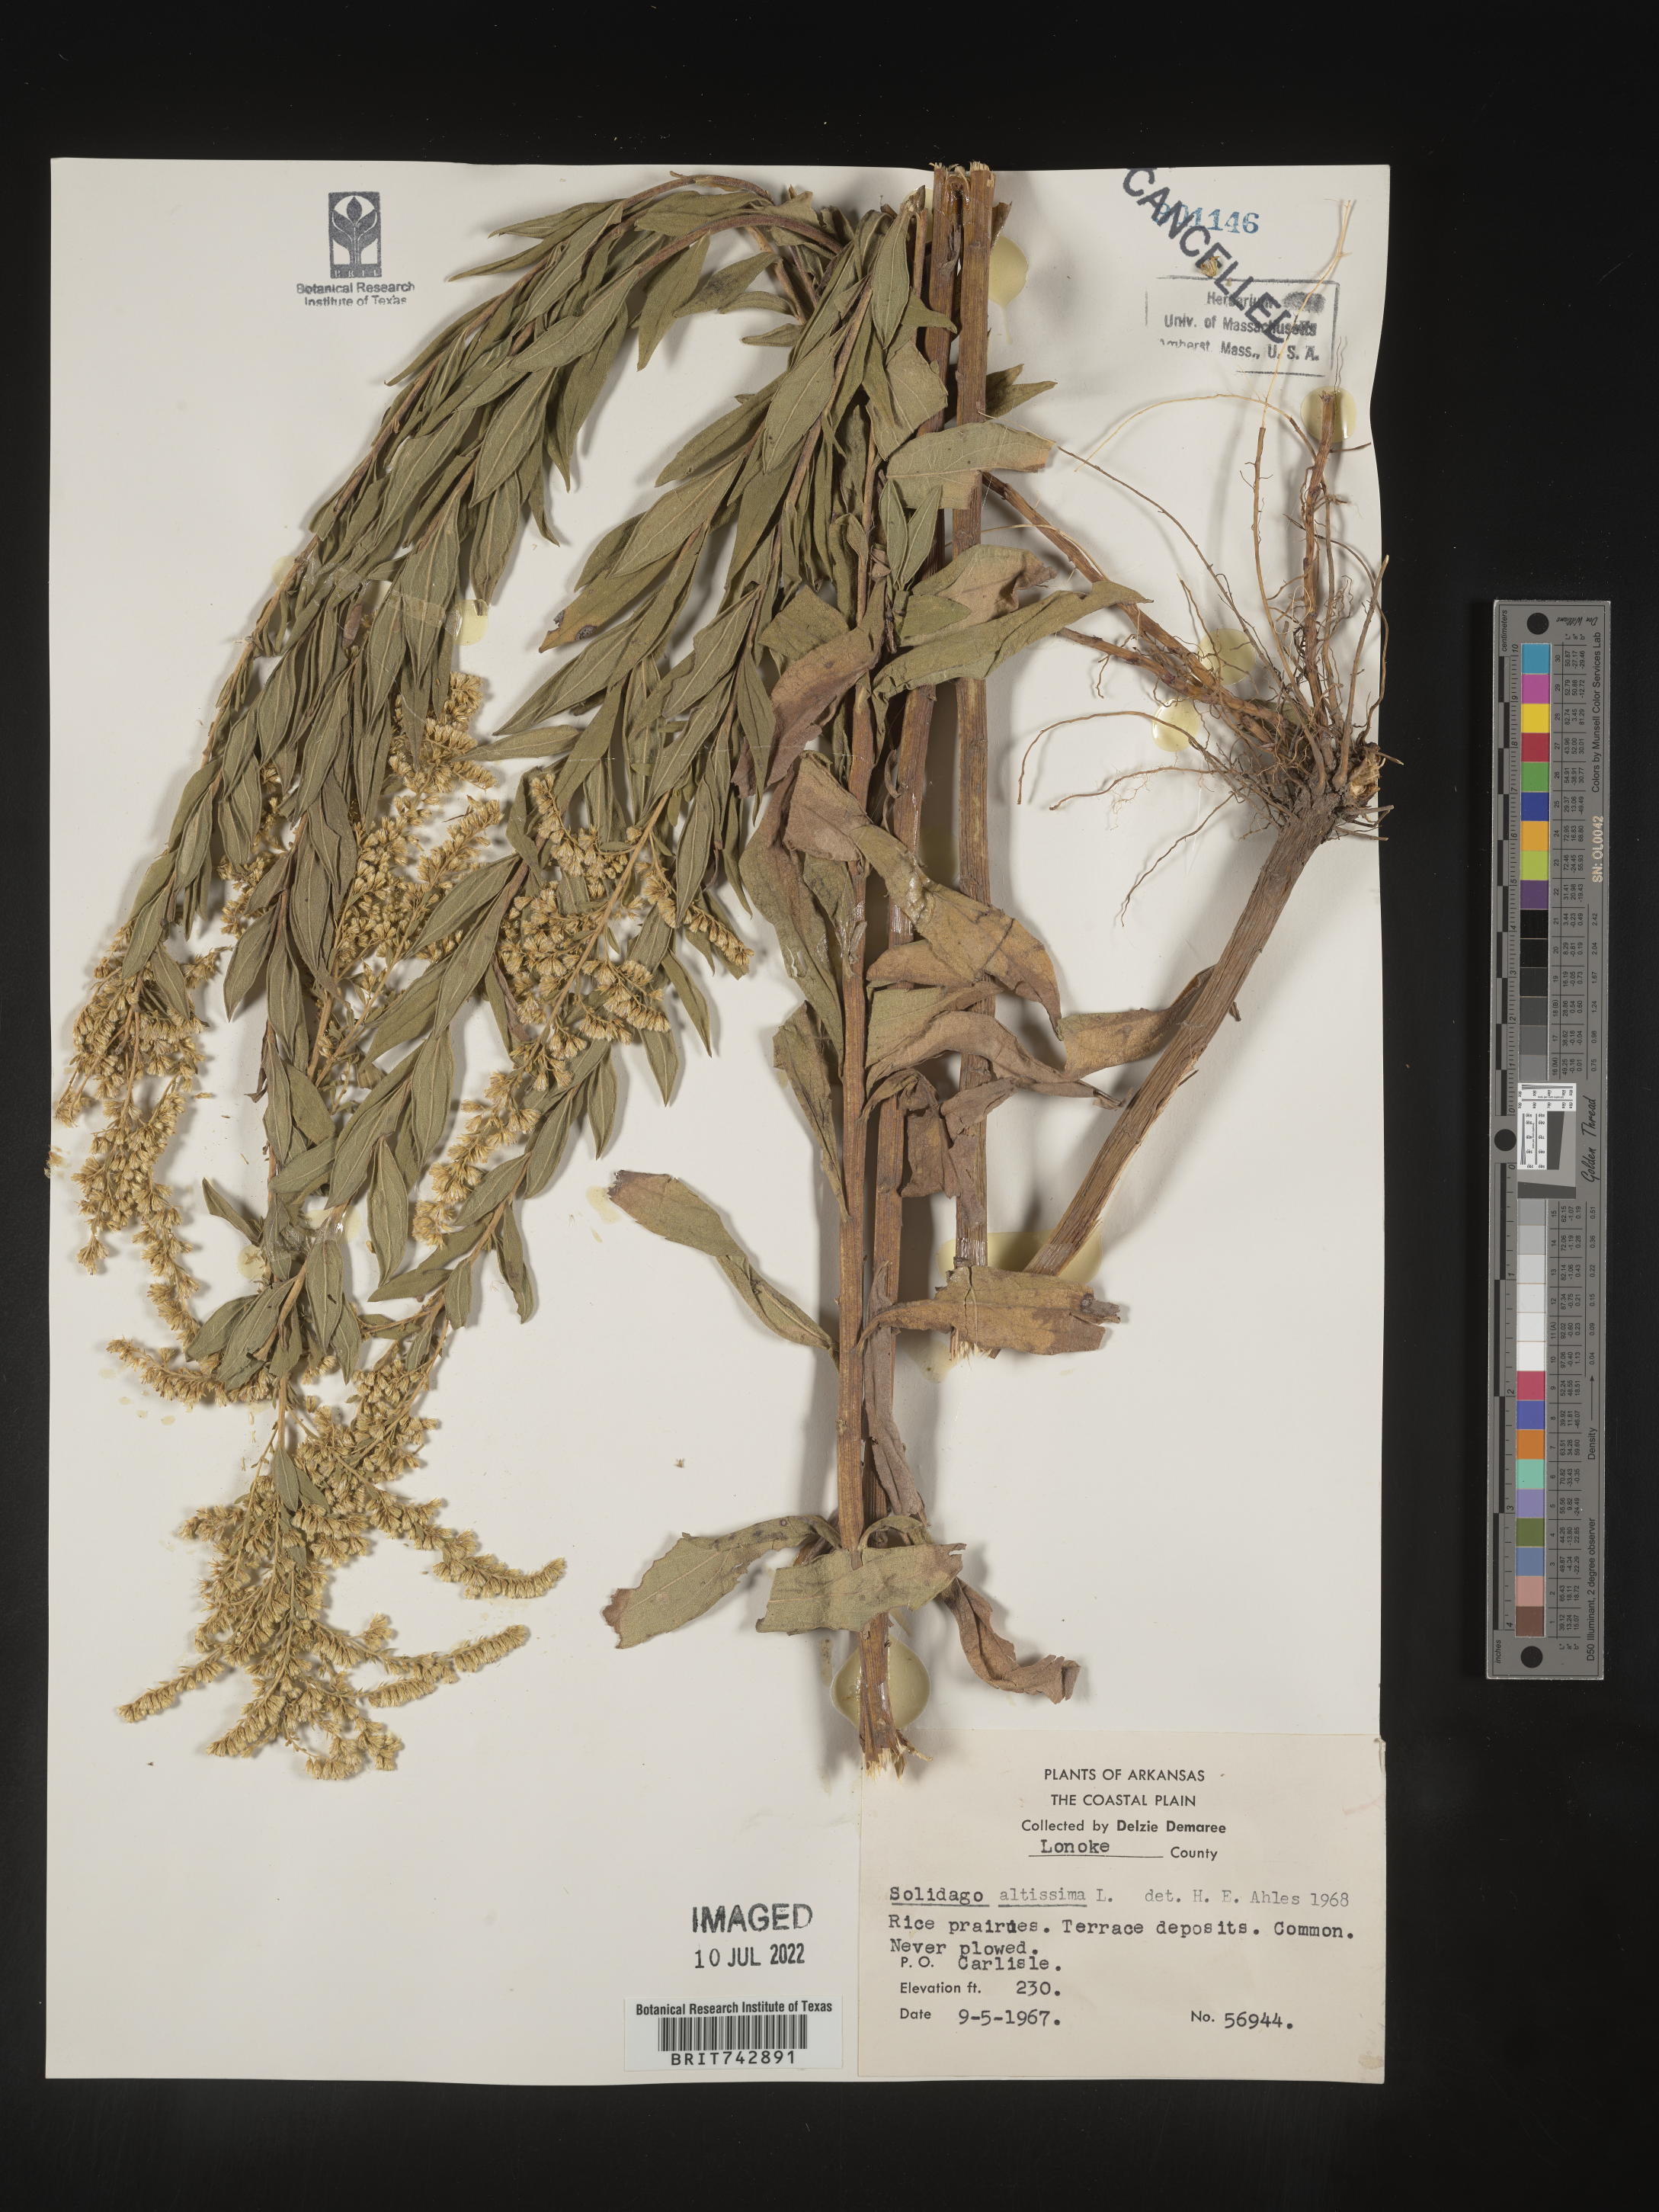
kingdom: Plantae
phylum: Tracheophyta
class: Magnoliopsida
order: Asterales
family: Asteraceae
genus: Solidago
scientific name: Solidago altissima
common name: Late goldenrod
